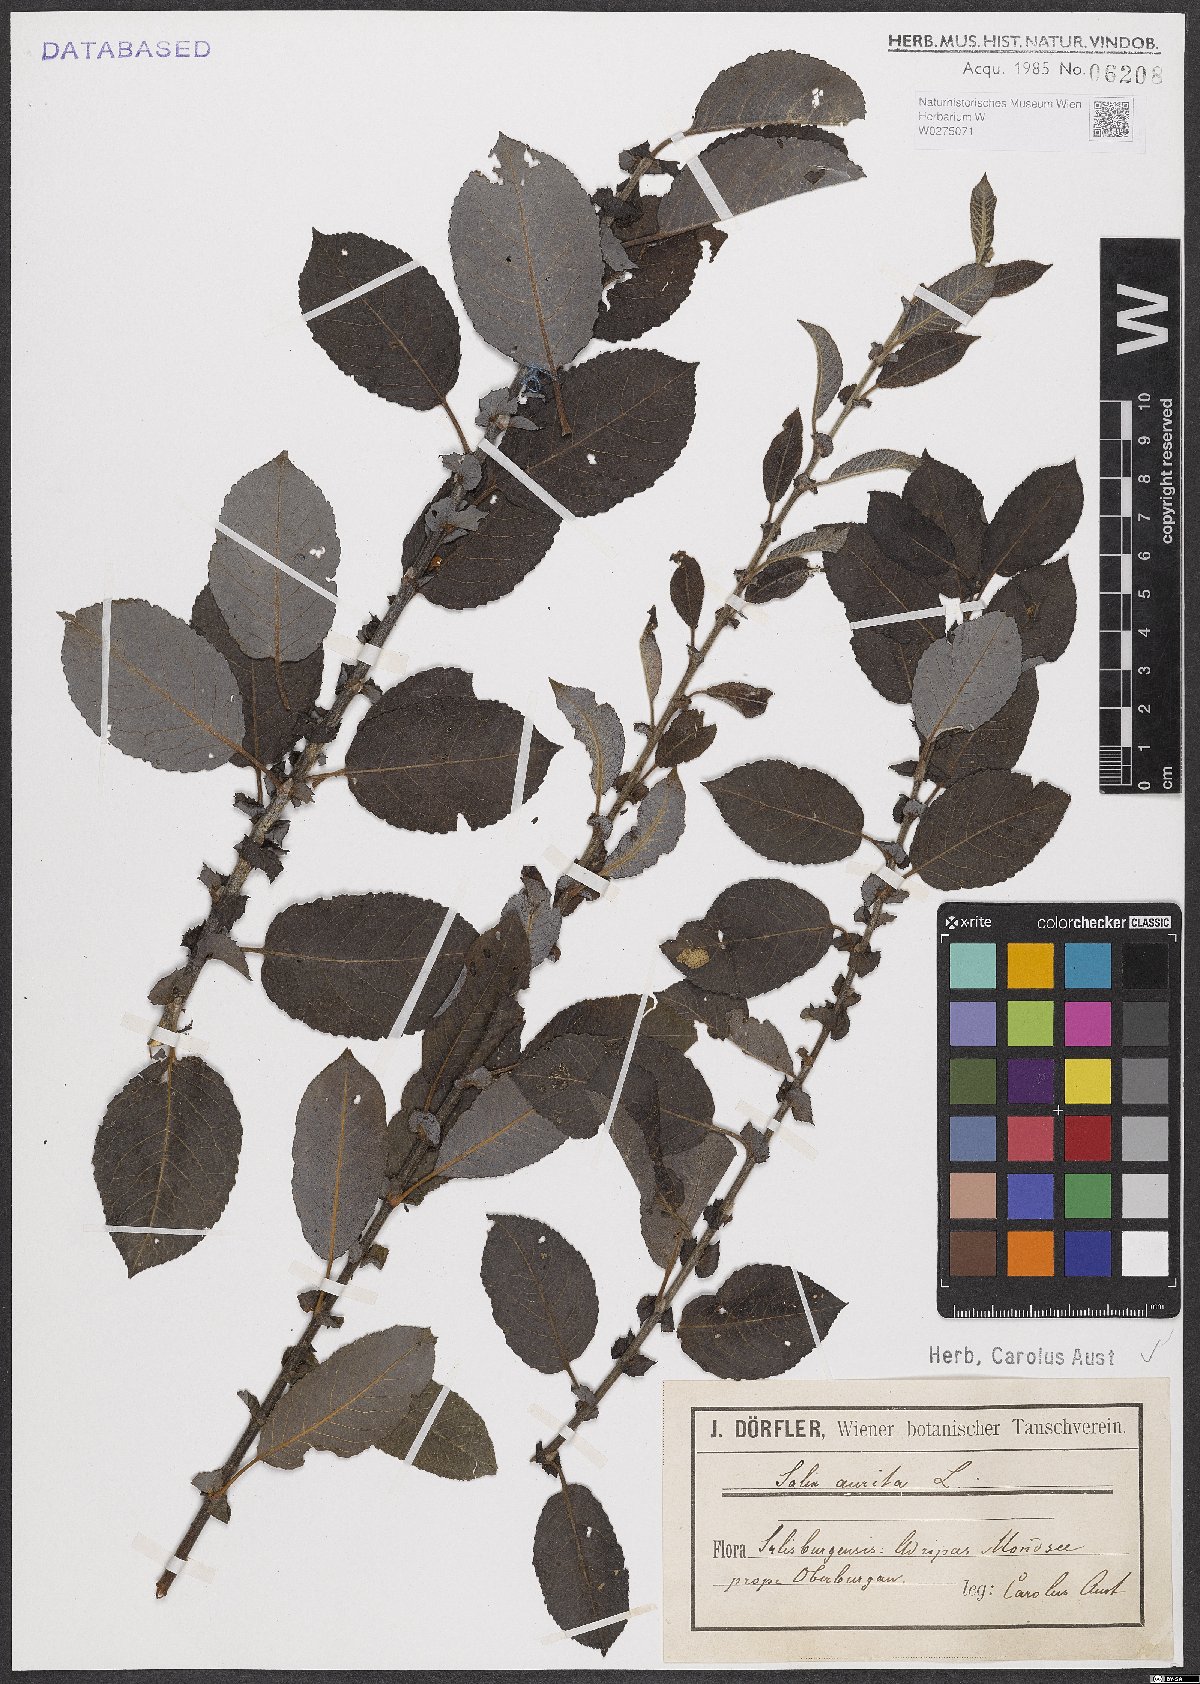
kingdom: Plantae
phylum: Tracheophyta
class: Magnoliopsida
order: Malpighiales
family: Salicaceae
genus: Salix
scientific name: Salix aurita
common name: Eared willow
